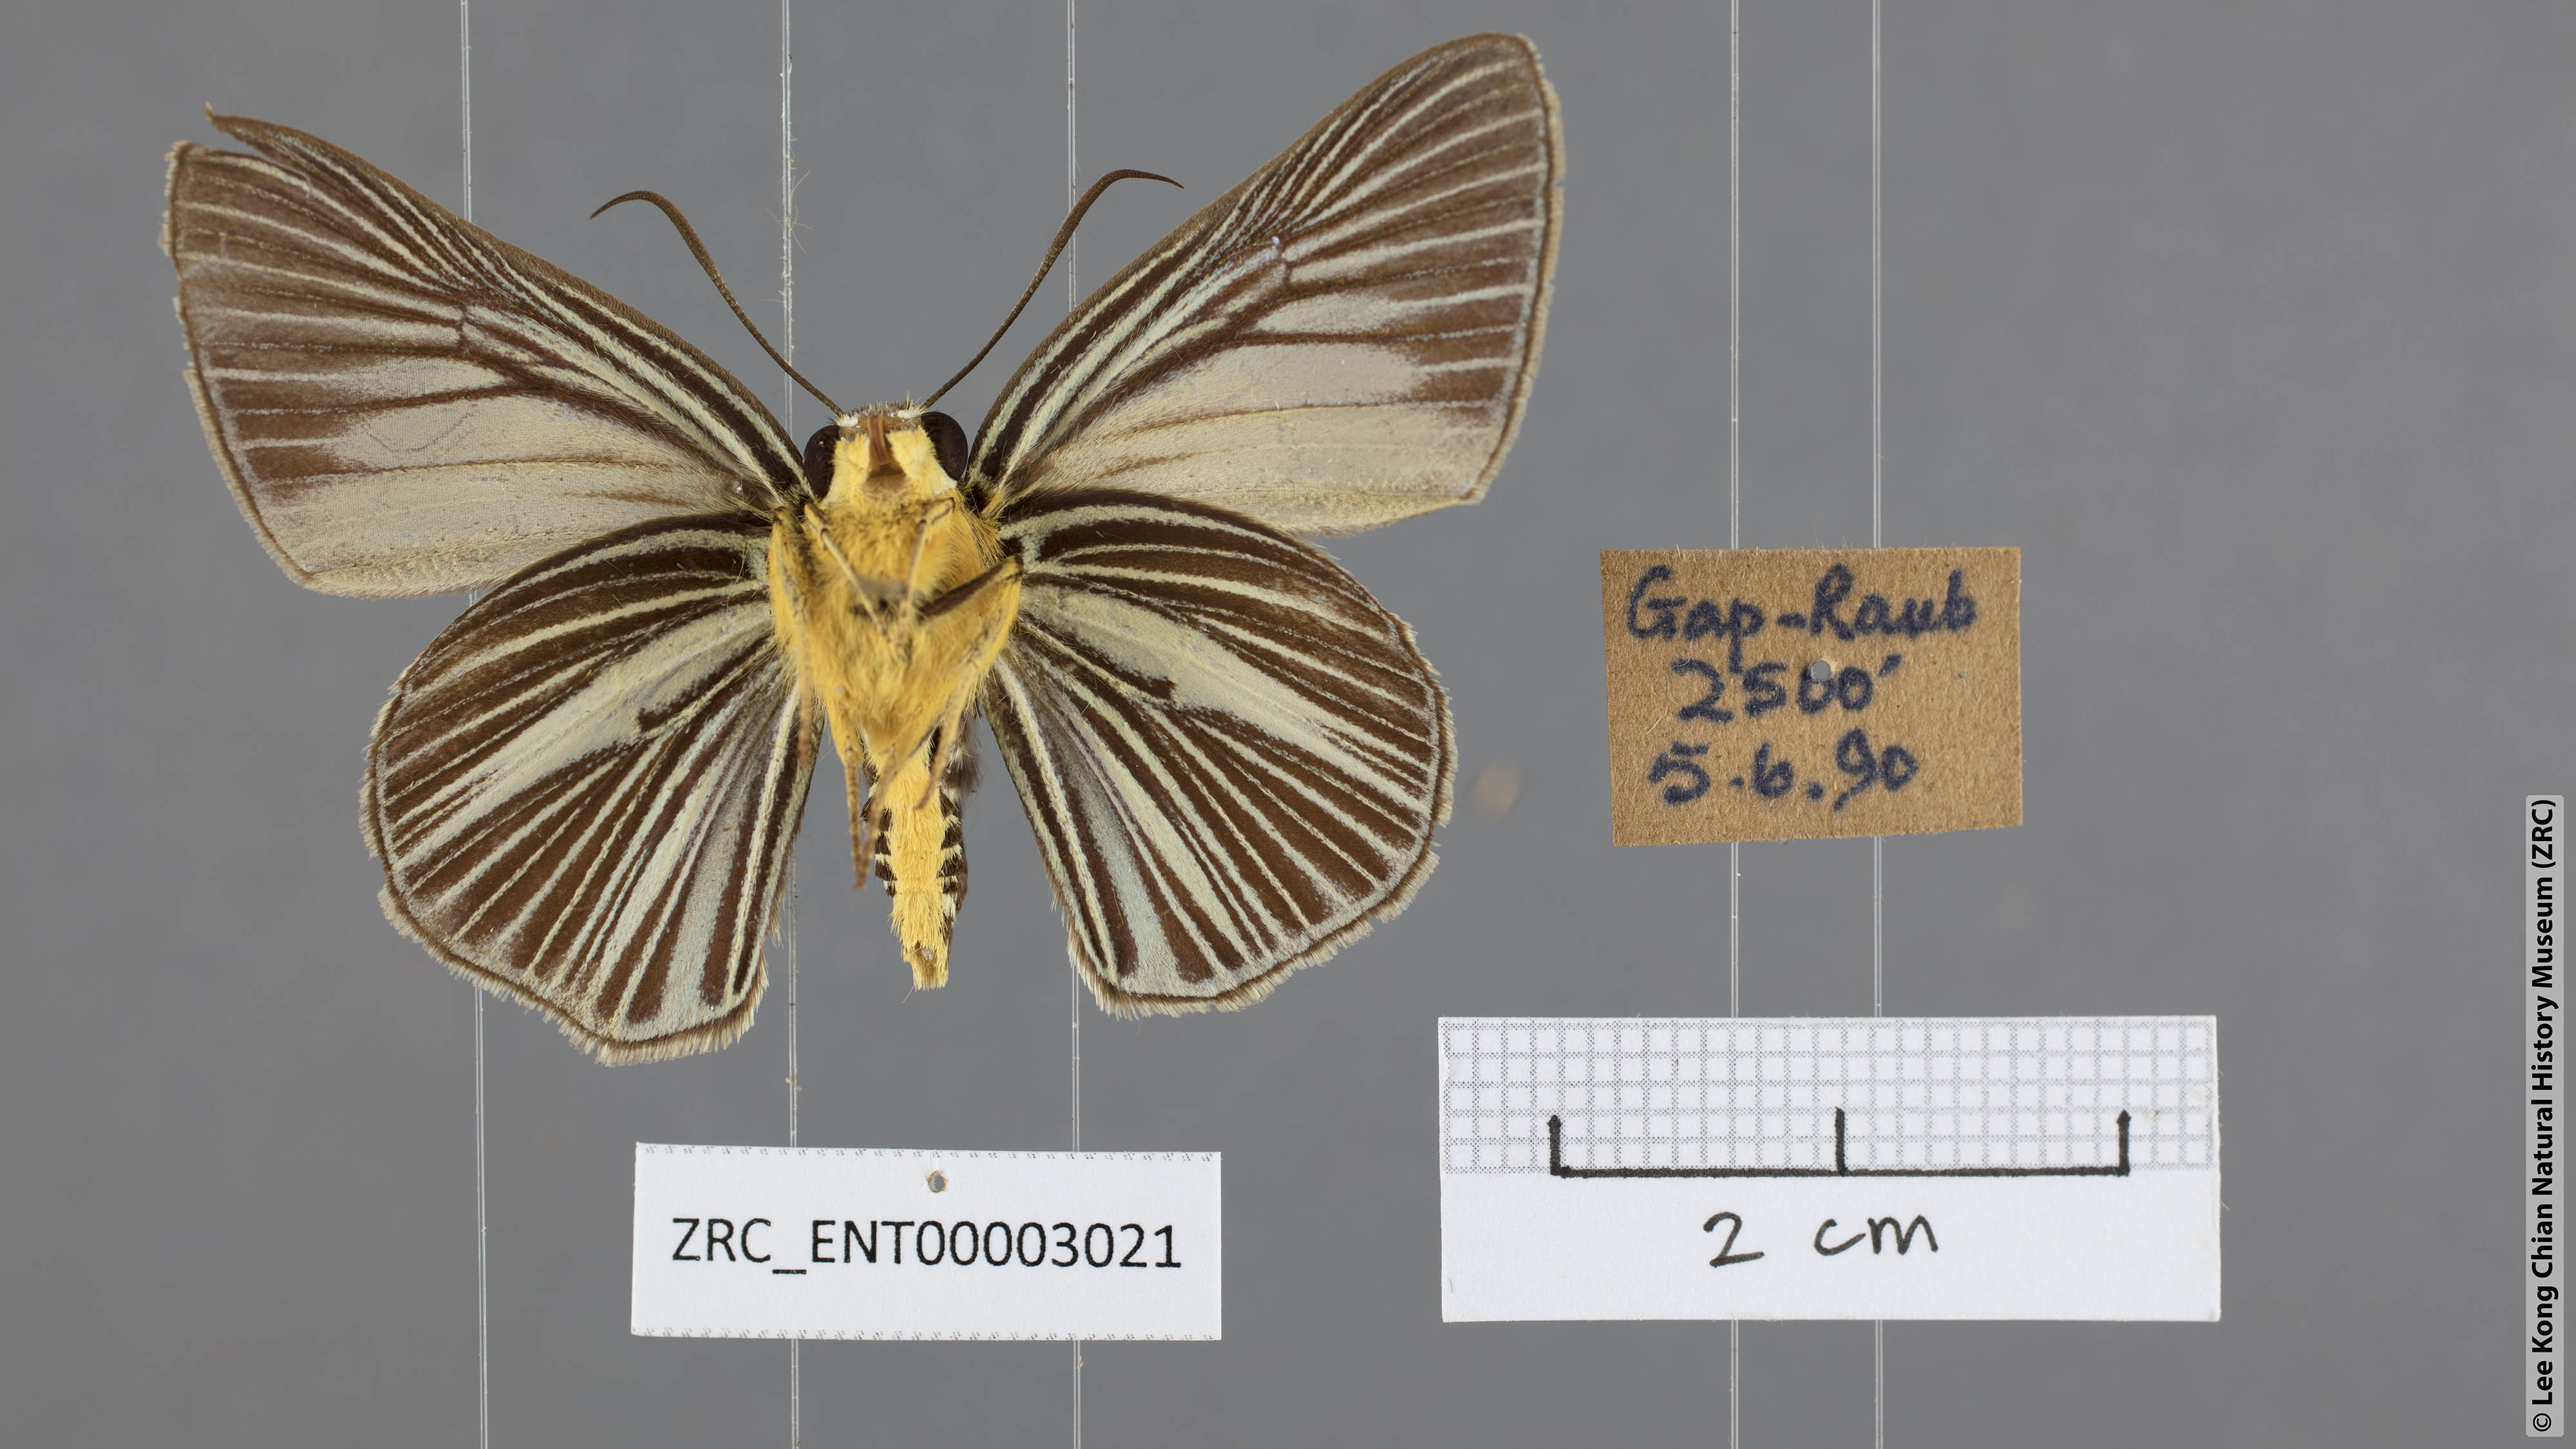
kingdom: Animalia
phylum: Arthropoda
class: Insecta
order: Lepidoptera
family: Hesperiidae
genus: Bibasis
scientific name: Bibasis gomata
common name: Pale green awlet
